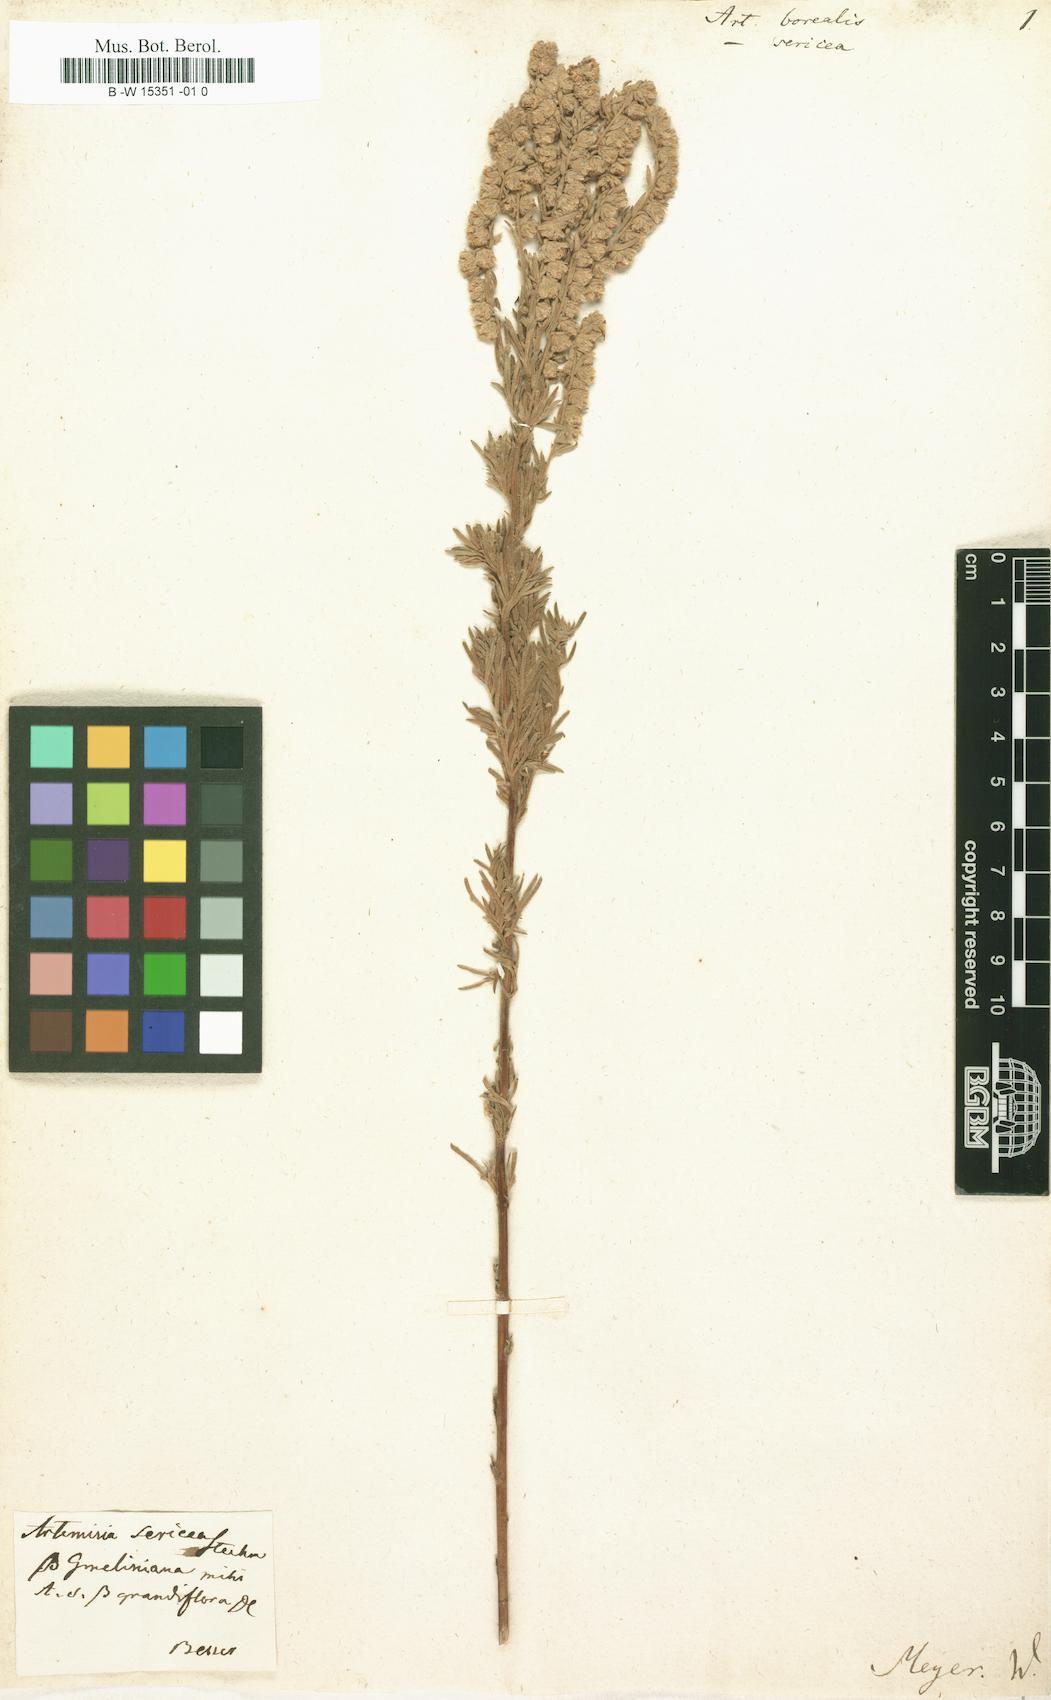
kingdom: Plantae
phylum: Tracheophyta
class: Magnoliopsida
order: Asterales
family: Asteraceae
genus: Artemisia
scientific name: Artemisia borealis
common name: Boreal sage
